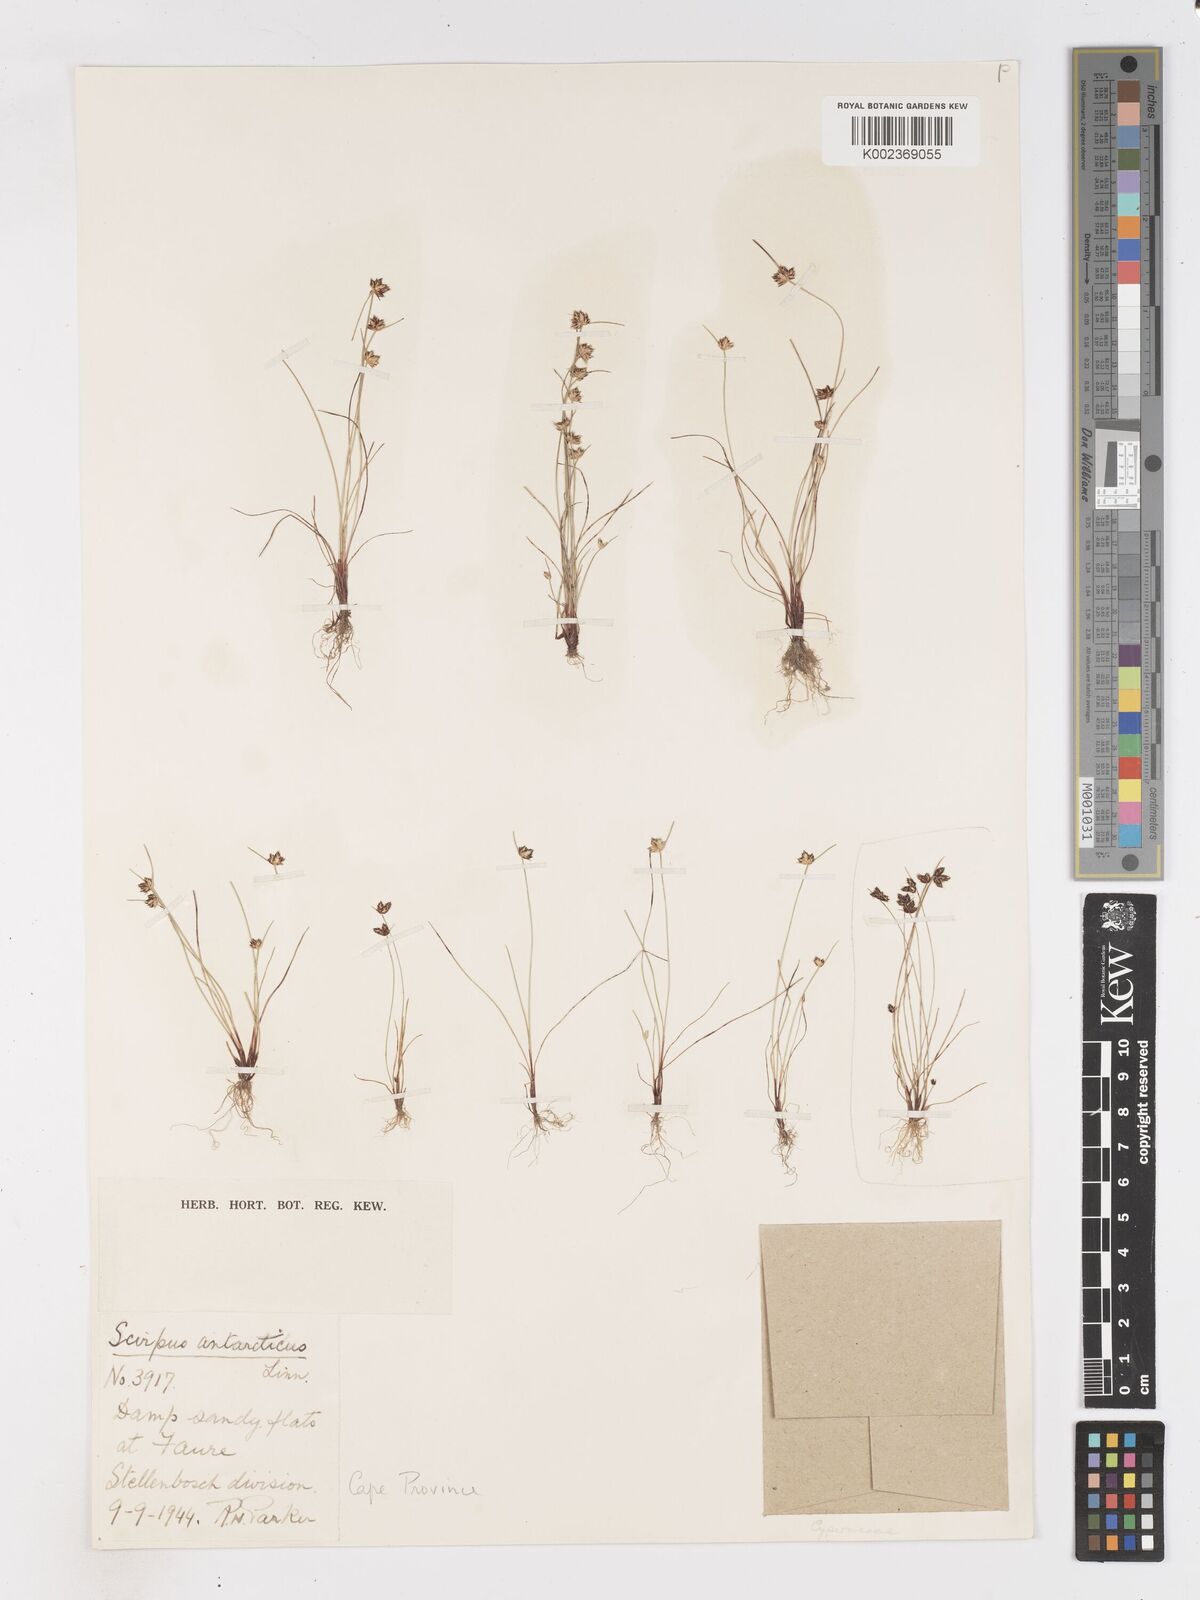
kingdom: Plantae
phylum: Tracheophyta
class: Liliopsida
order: Poales
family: Cyperaceae
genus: Isolepis
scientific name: Isolepis diabolica
